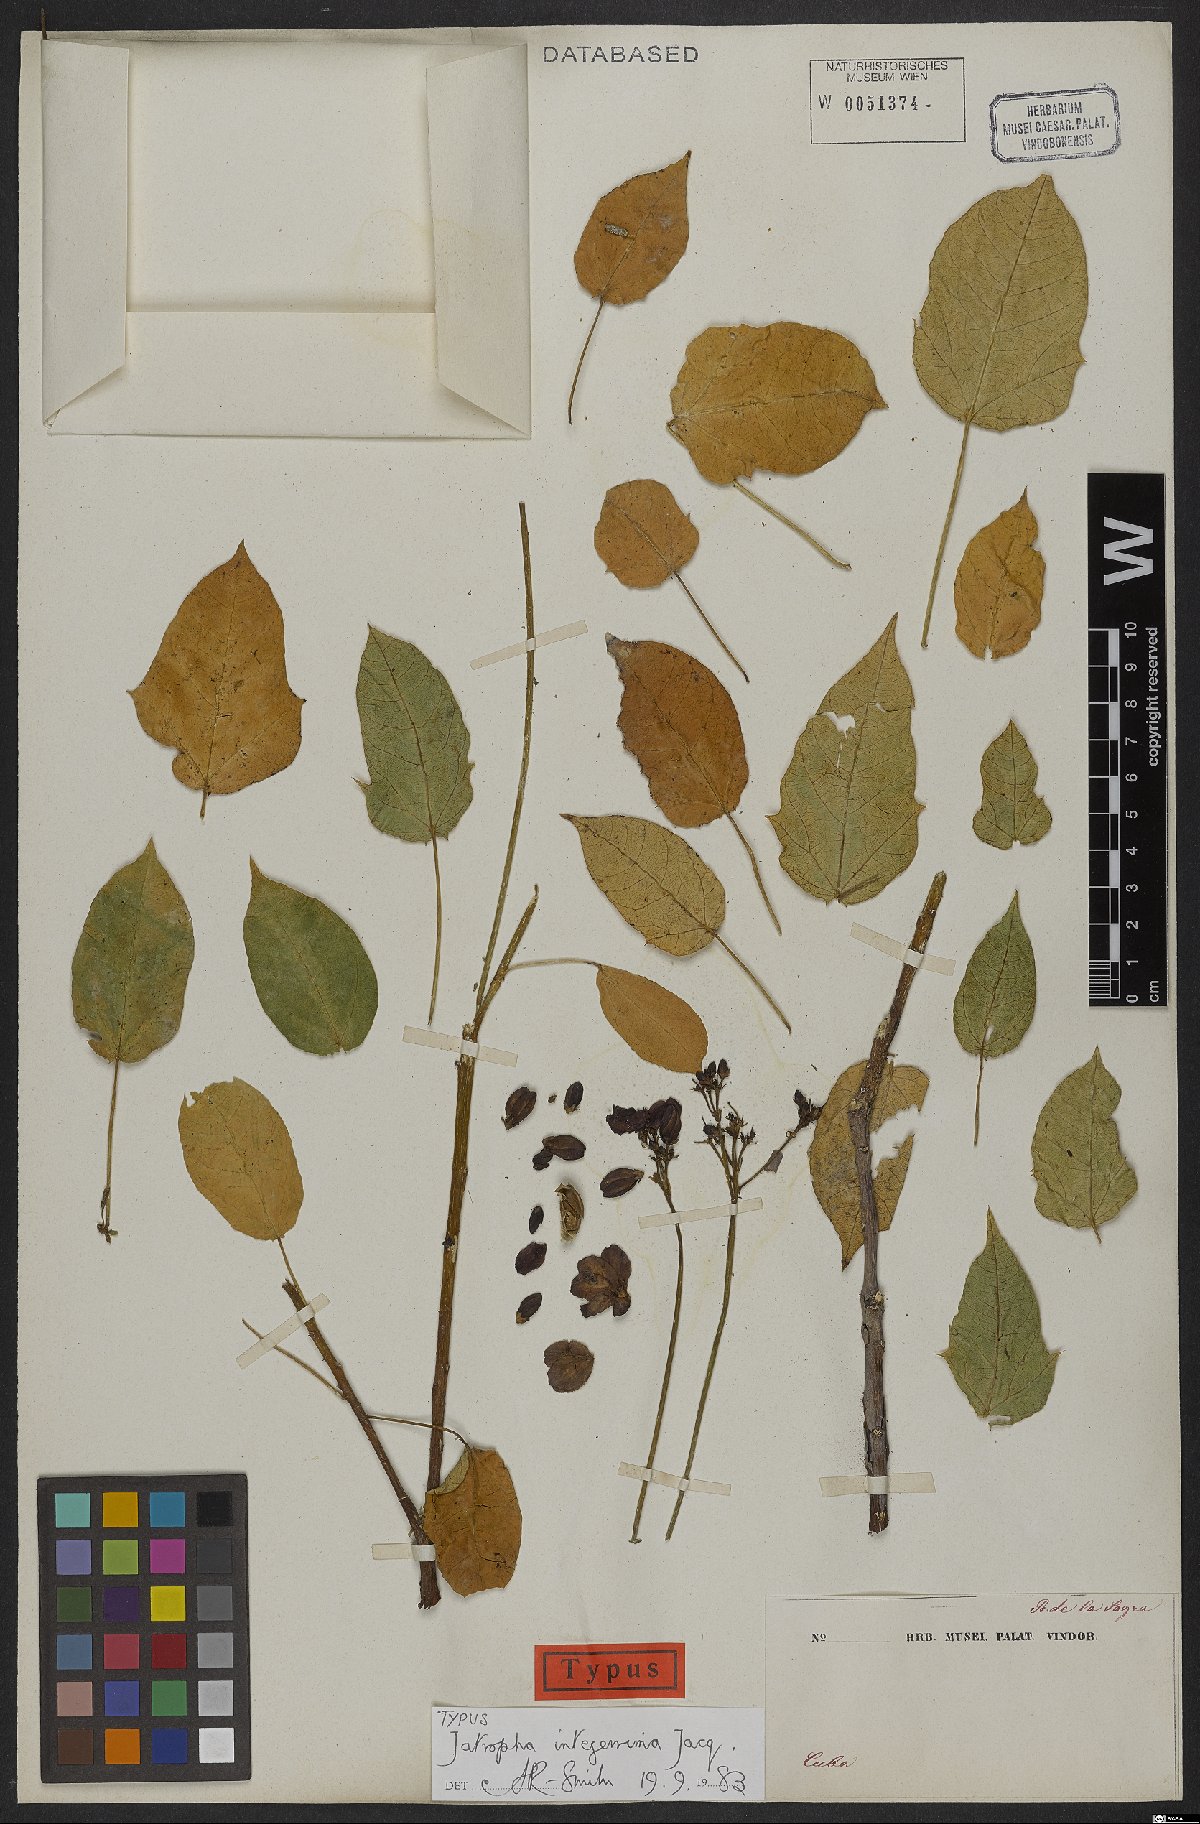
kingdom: Plantae
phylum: Tracheophyta
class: Magnoliopsida
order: Malpighiales
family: Euphorbiaceae
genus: Jatropha
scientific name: Jatropha integerrima
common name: Peregrina
